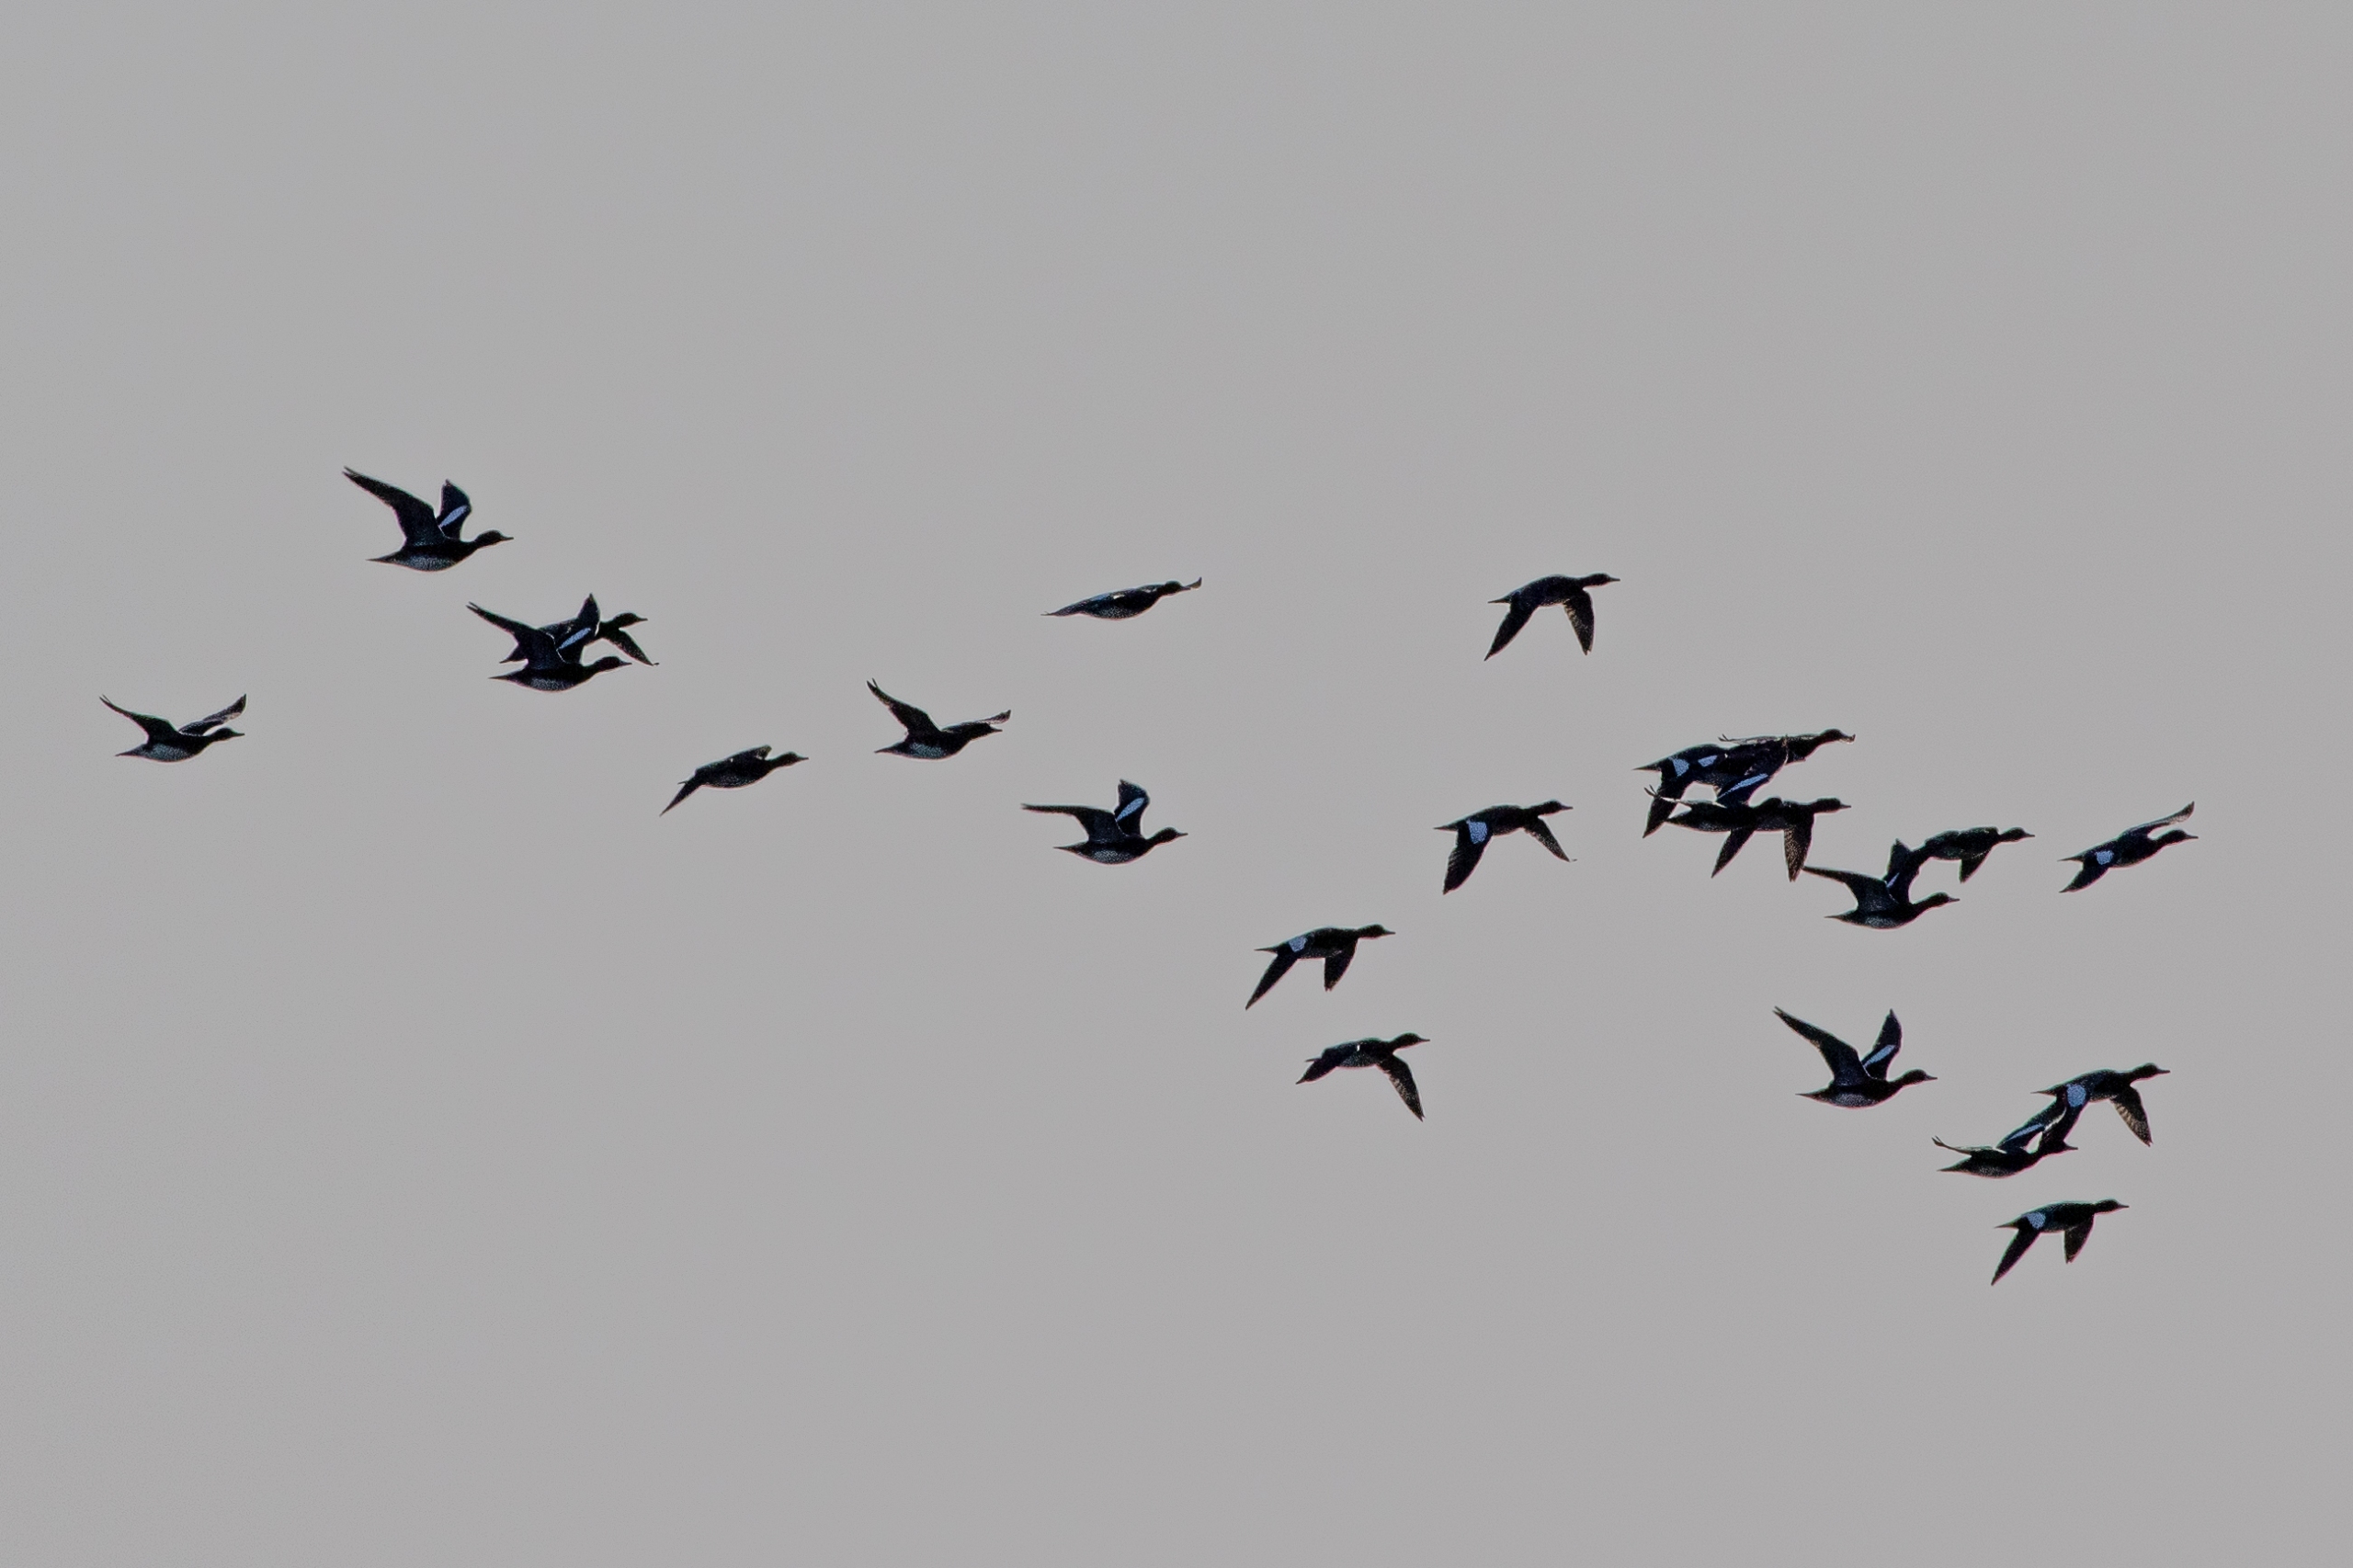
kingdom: Animalia
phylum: Chordata
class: Aves
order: Anseriformes
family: Anatidae
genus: Mareca
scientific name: Mareca penelope
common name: Pibeand
